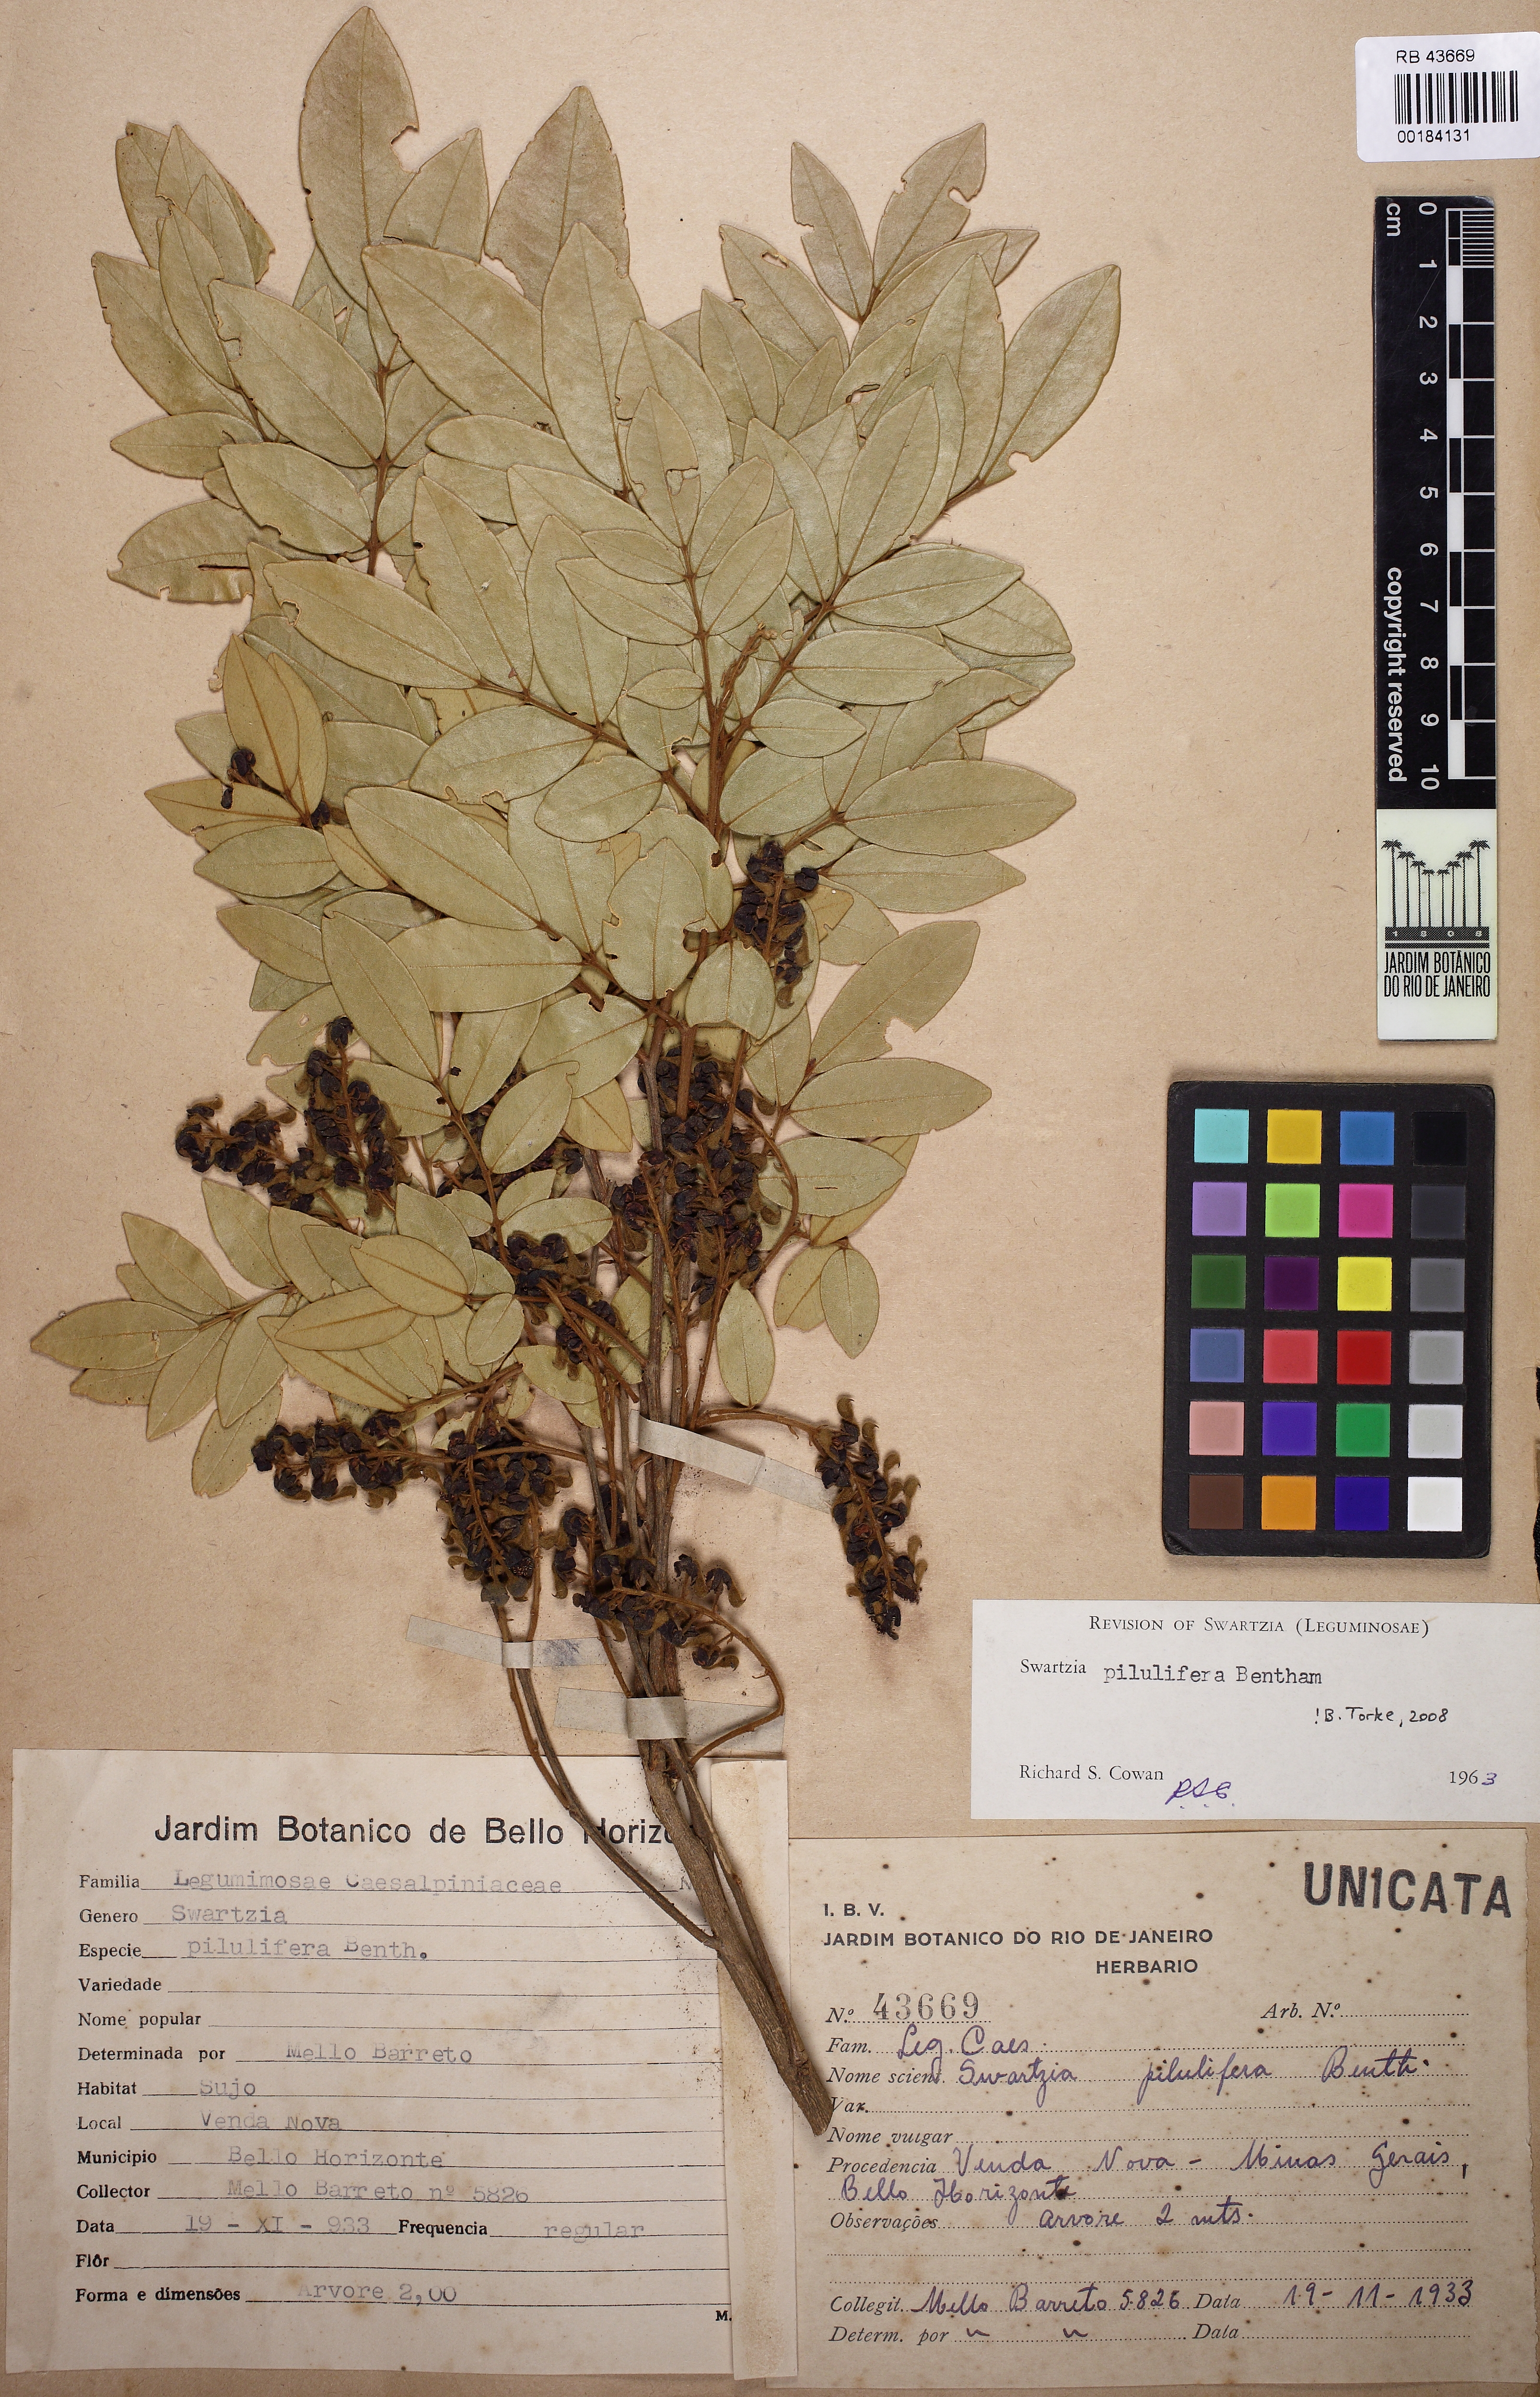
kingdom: Plantae
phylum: Tracheophyta
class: Magnoliopsida
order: Fabales
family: Fabaceae
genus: Swartzia
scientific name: Swartzia pilulifera
